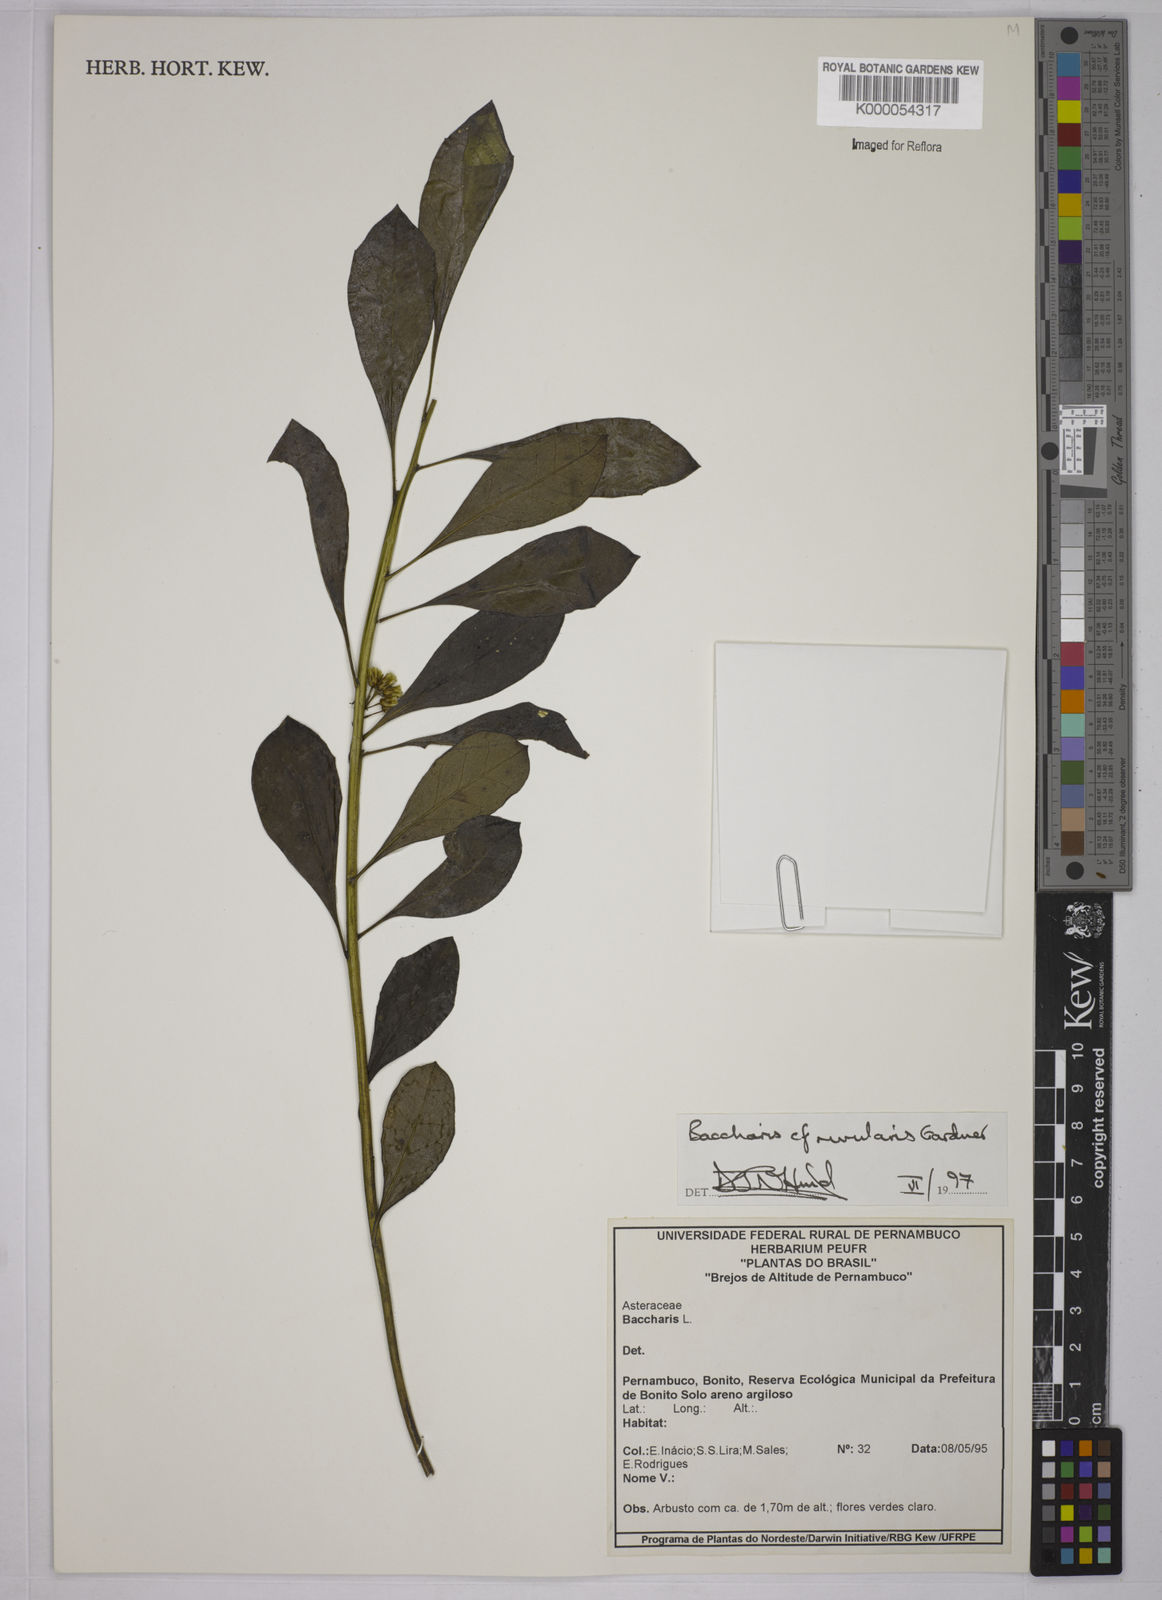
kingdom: Plantae
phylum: Tracheophyta
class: Magnoliopsida
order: Asterales
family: Asteraceae
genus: Baccharis
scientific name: Baccharis rivularis
